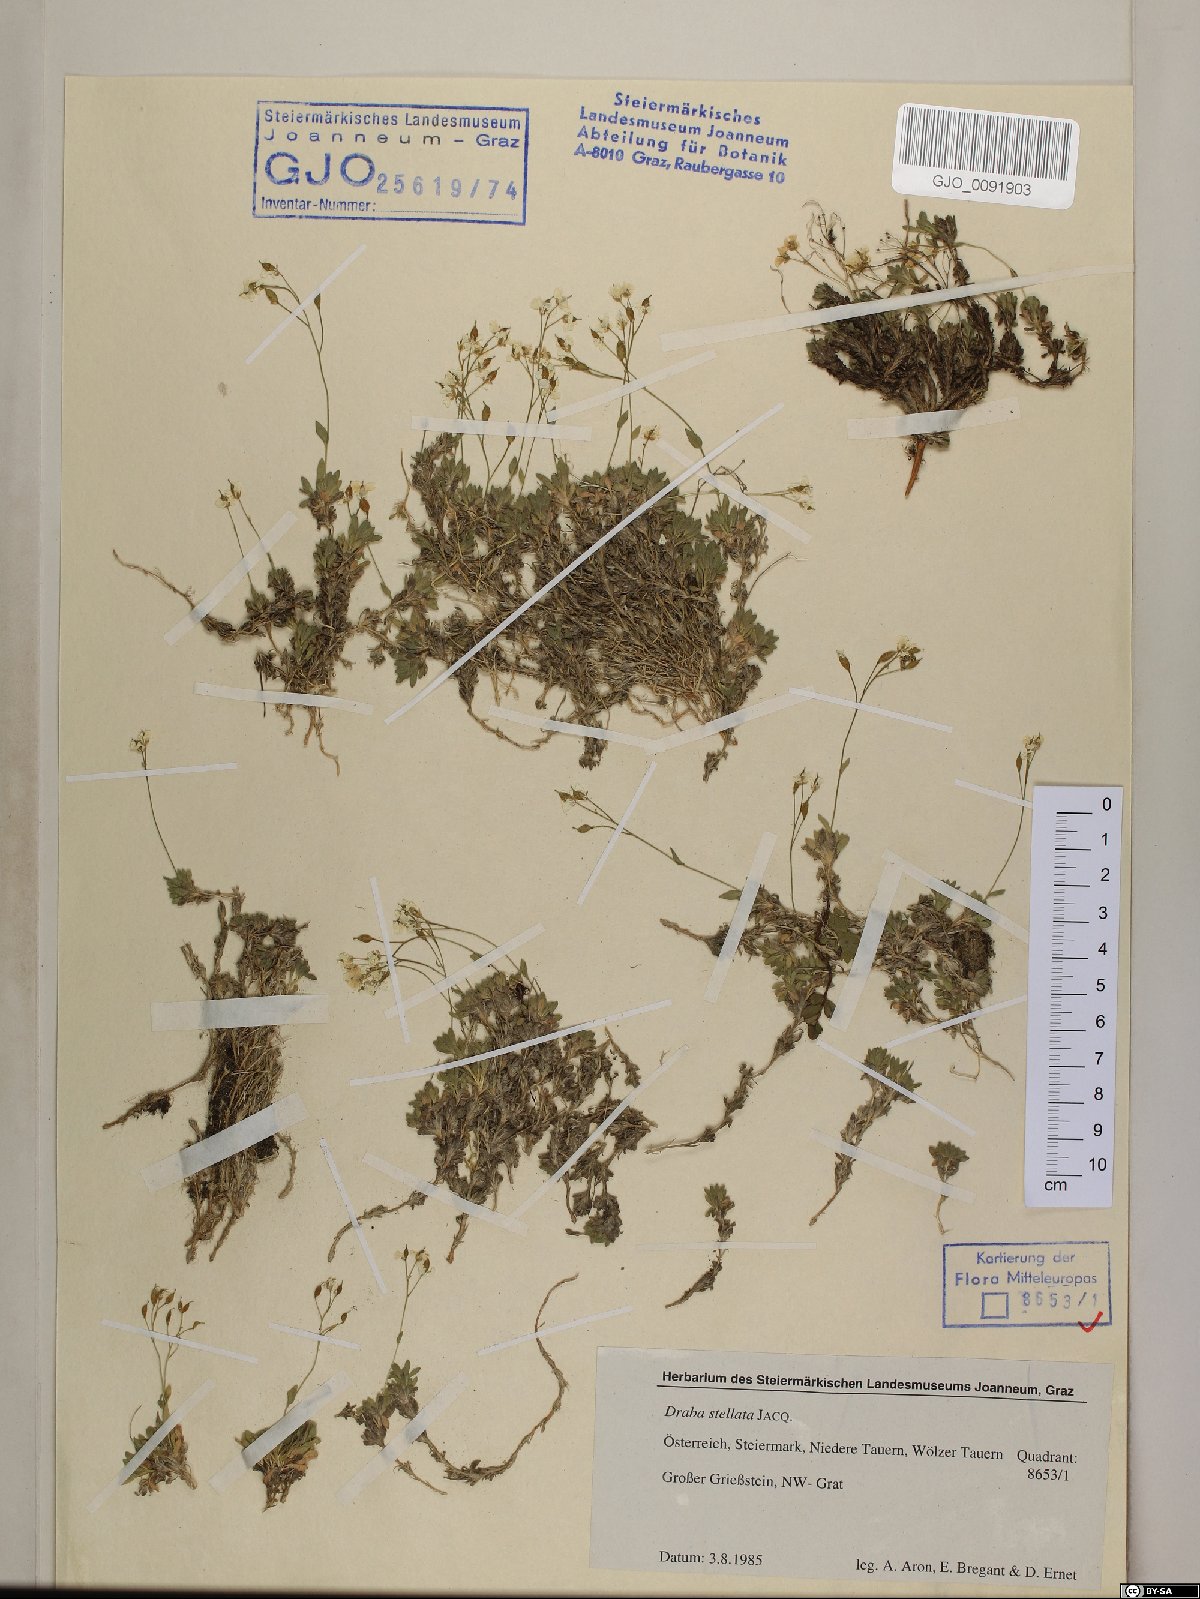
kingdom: Plantae
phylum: Tracheophyta
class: Magnoliopsida
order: Brassicales
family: Brassicaceae
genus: Draba
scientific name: Draba stellata
